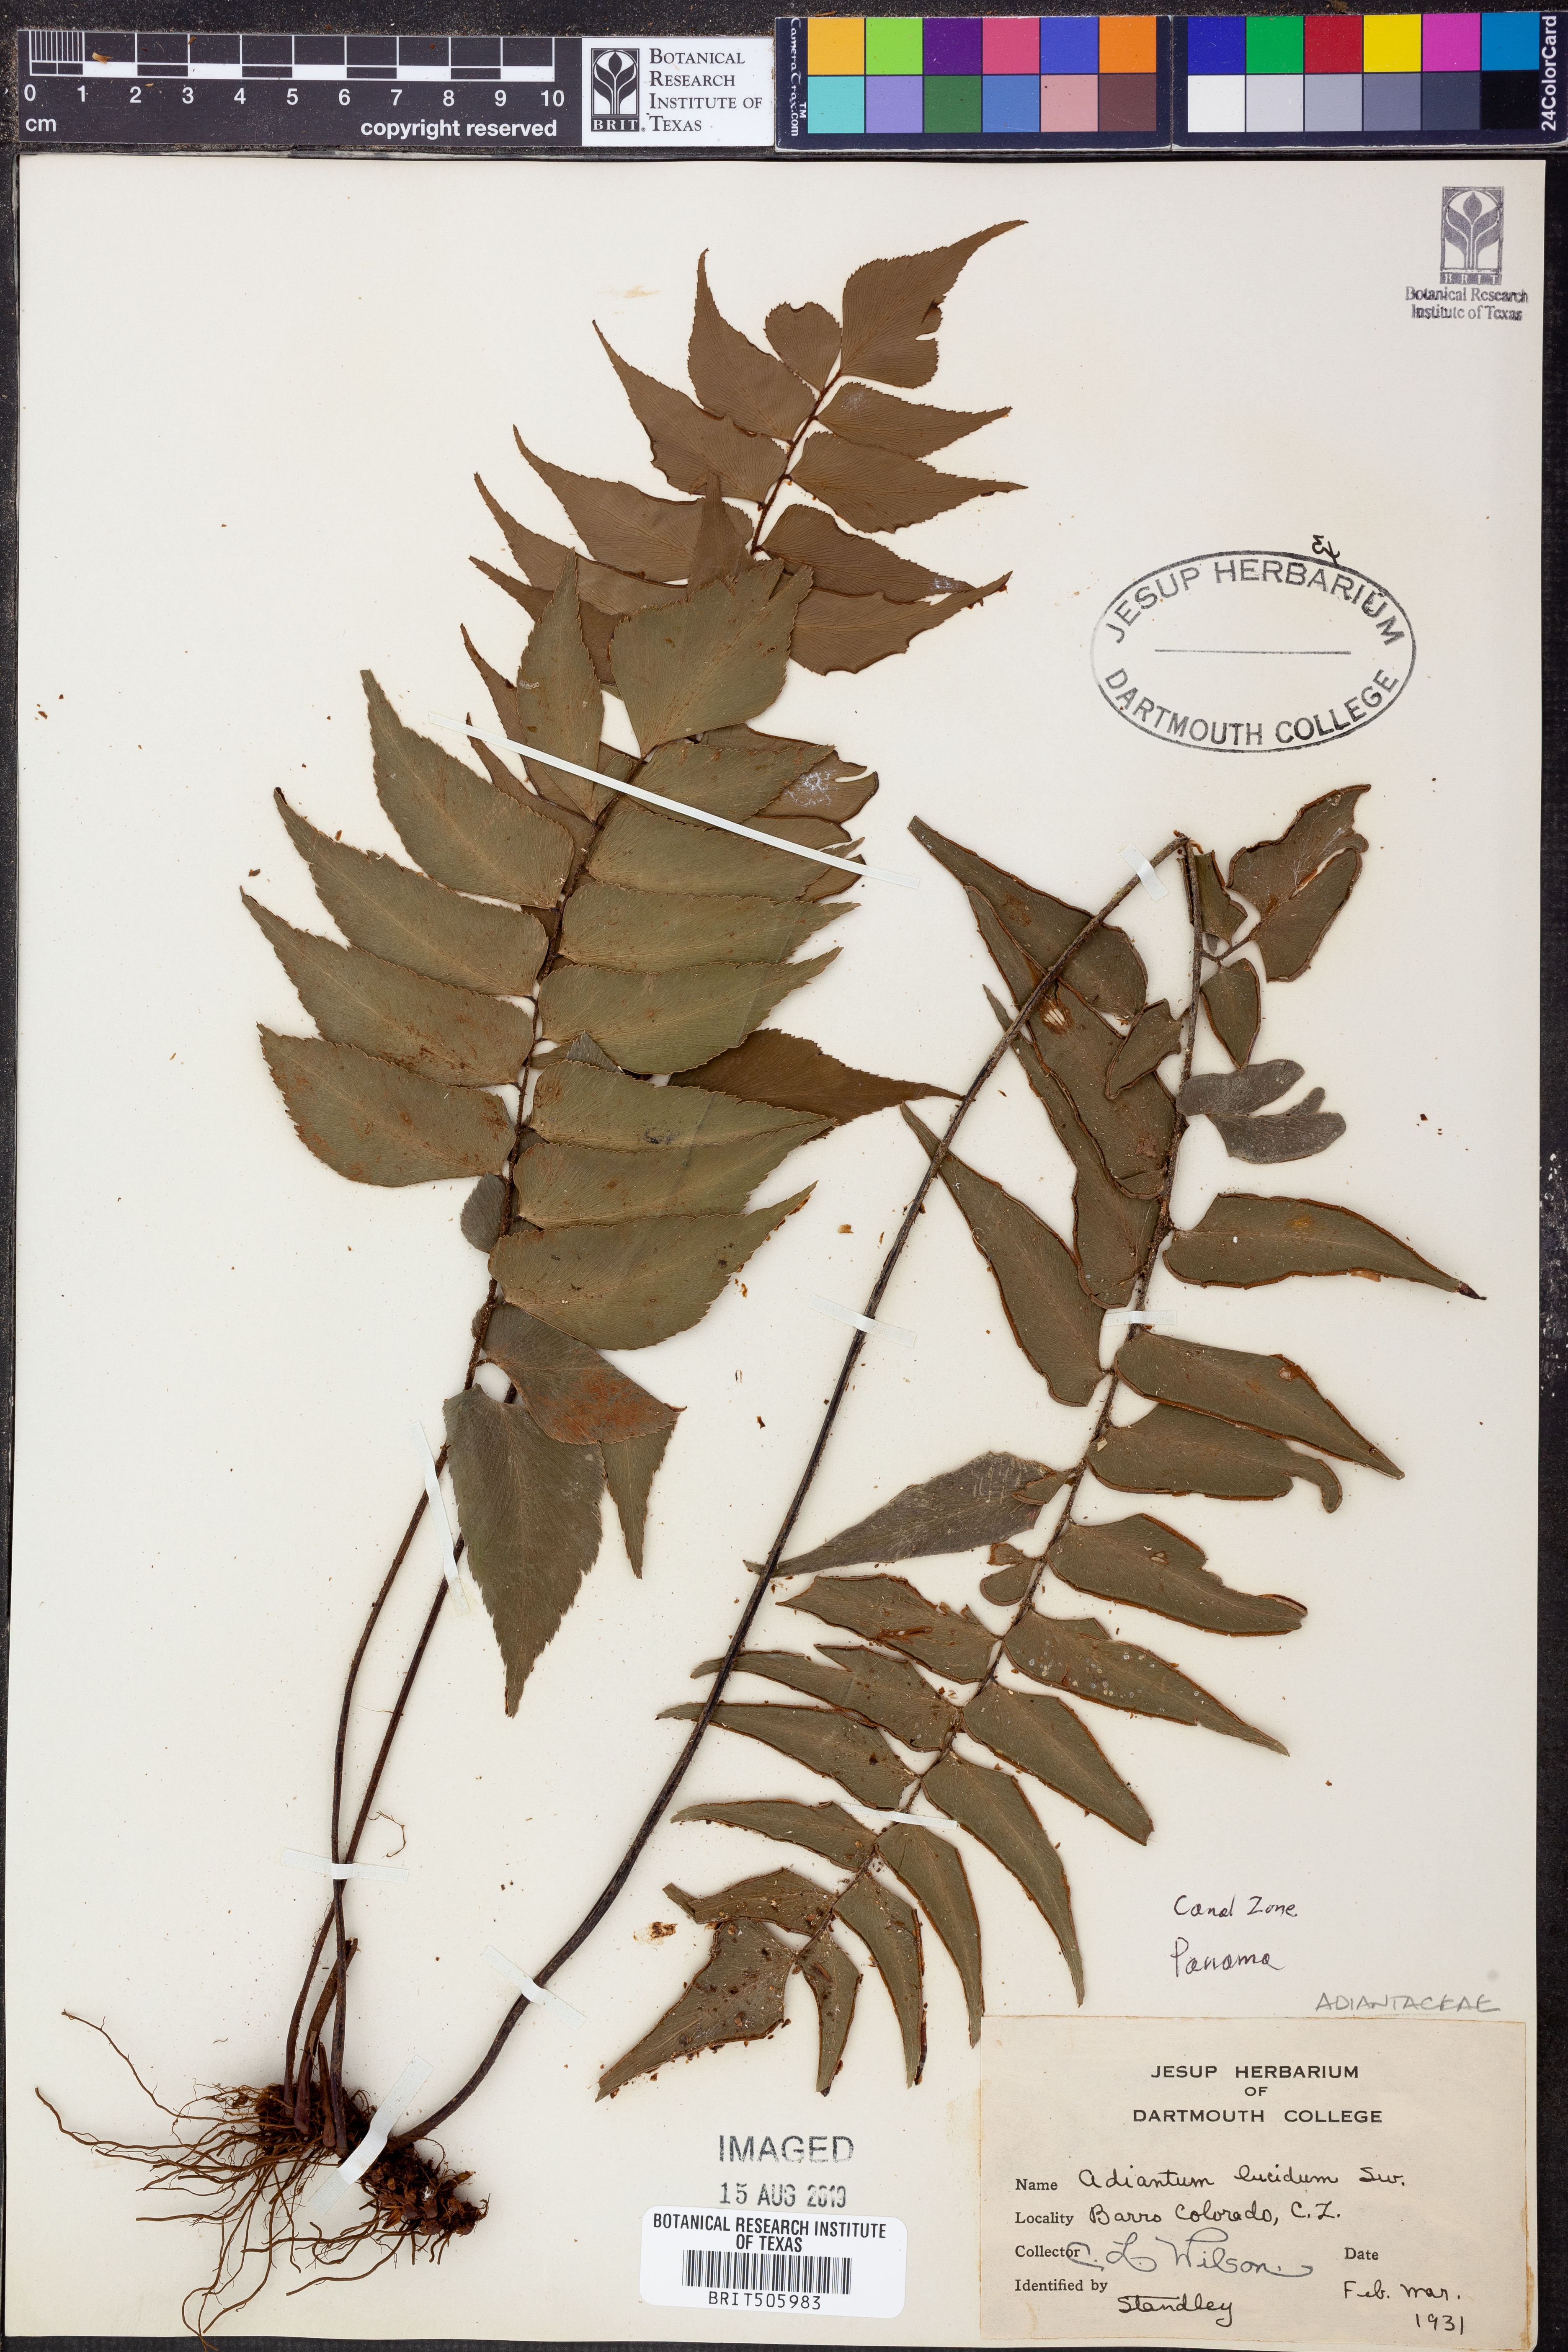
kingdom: Plantae
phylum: Tracheophyta
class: Polypodiopsida
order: Polypodiales
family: Pteridaceae
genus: Adiantum
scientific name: Adiantum lucidum
